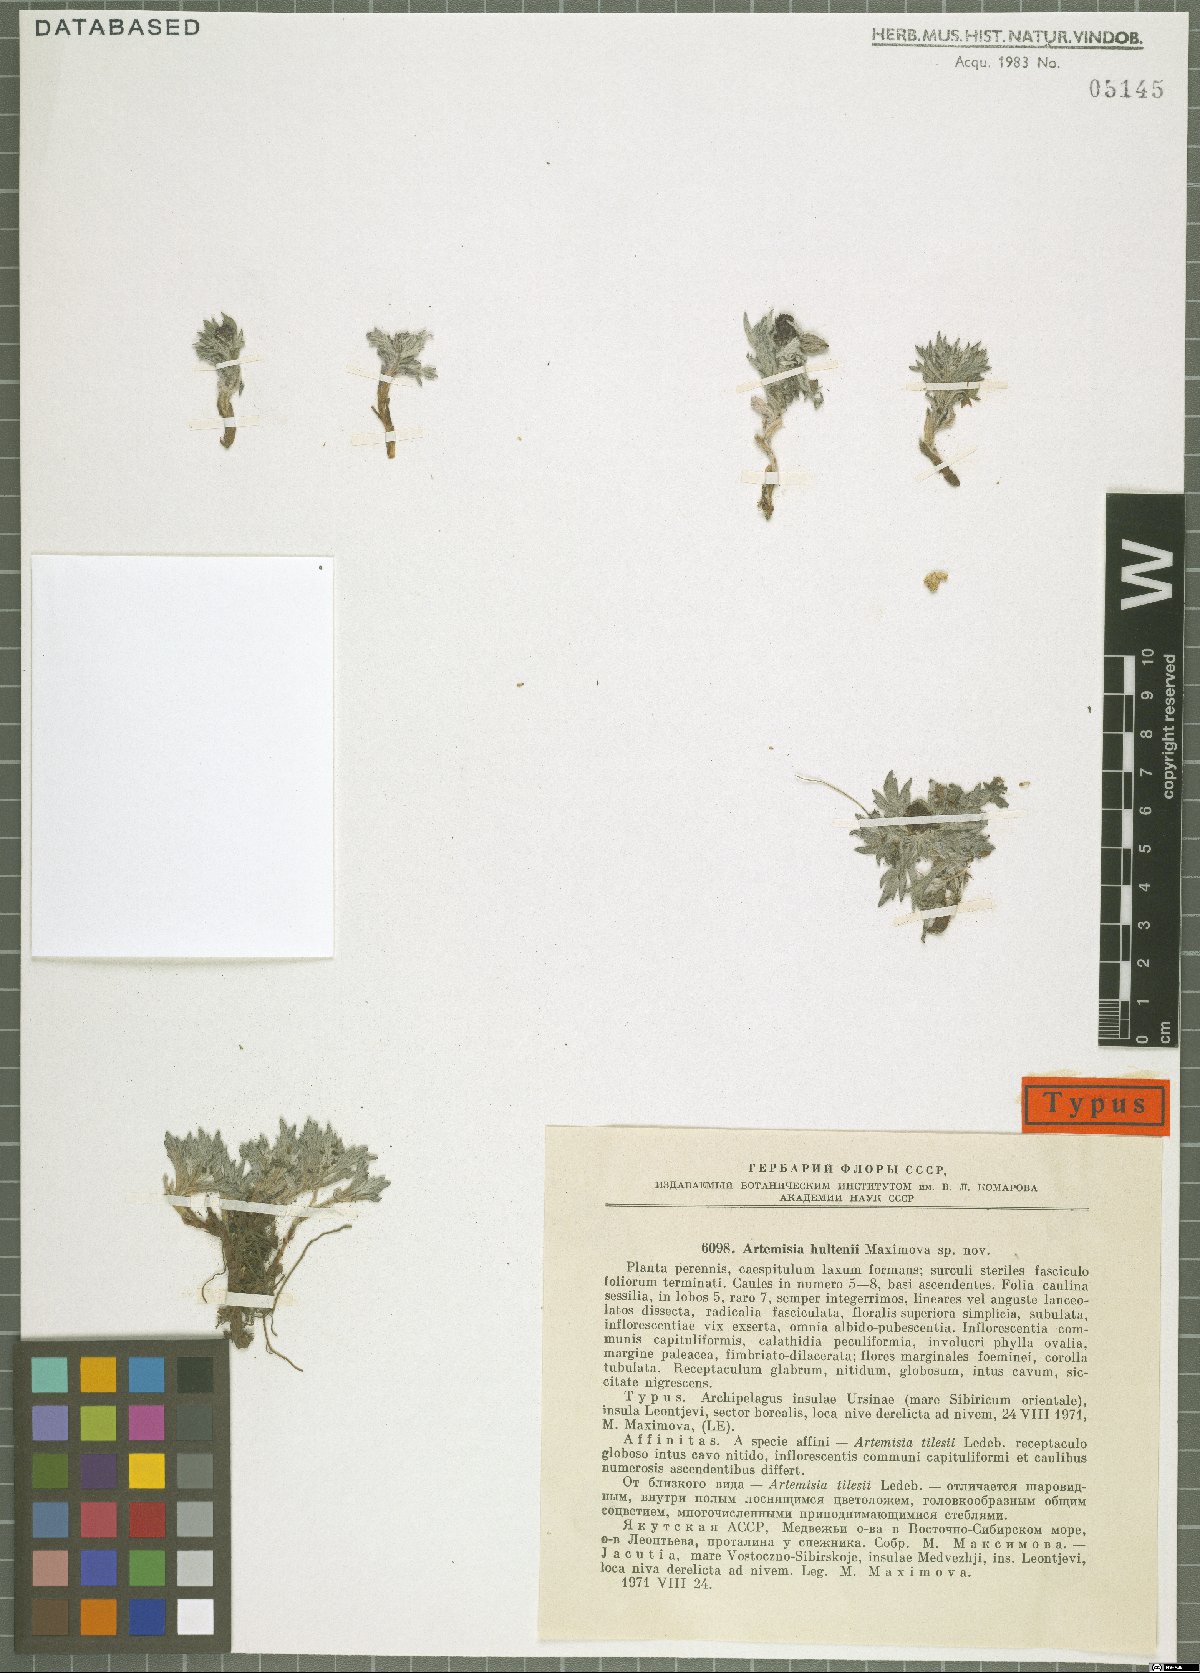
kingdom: Plantae
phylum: Tracheophyta
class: Magnoliopsida
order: Asterales
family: Asteraceae
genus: Artemisia
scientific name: Artemisia tilesii
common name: Aleutian mugwort
